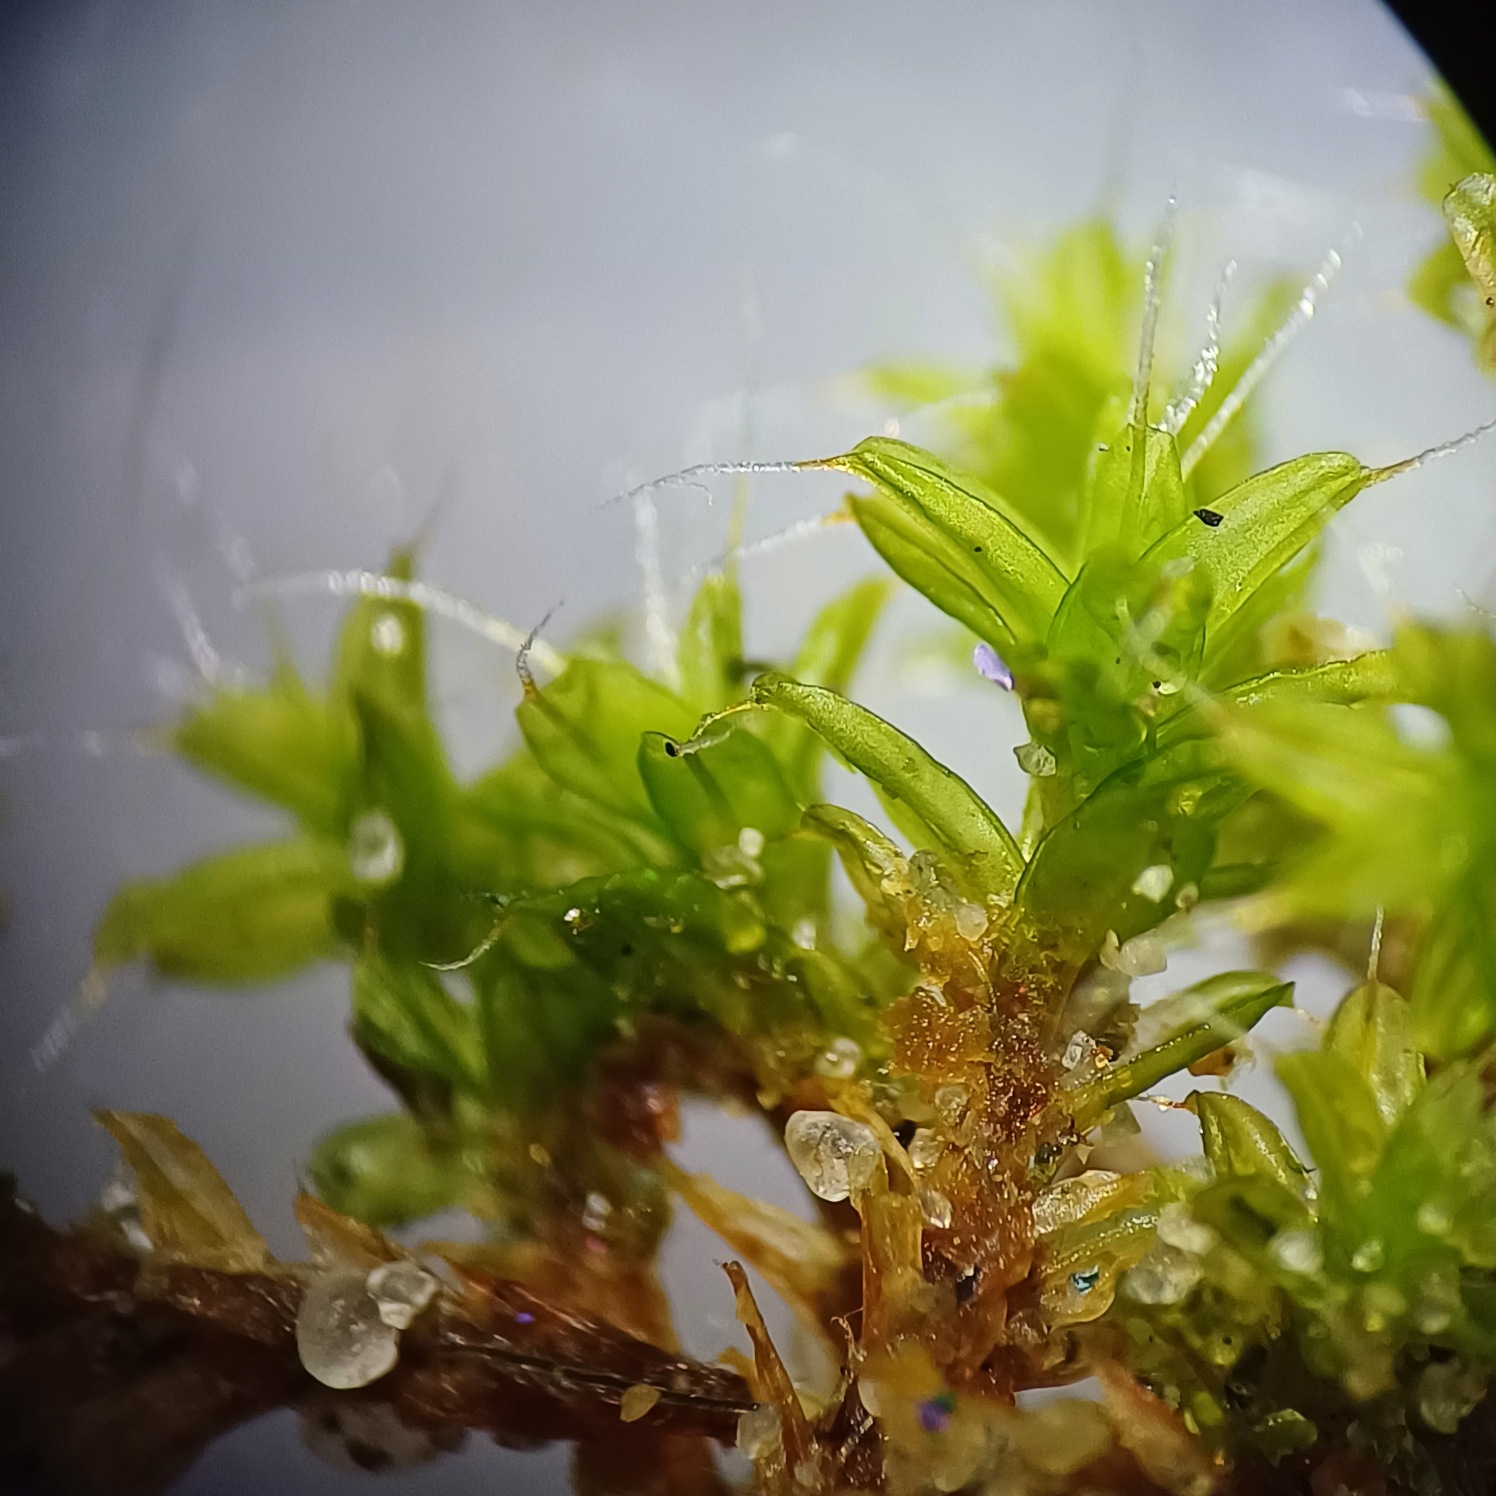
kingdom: Plantae
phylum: Bryophyta
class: Bryopsida
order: Pottiales
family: Pottiaceae
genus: Syntrichia
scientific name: Syntrichia ruralis
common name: Tag-hårstjerne
